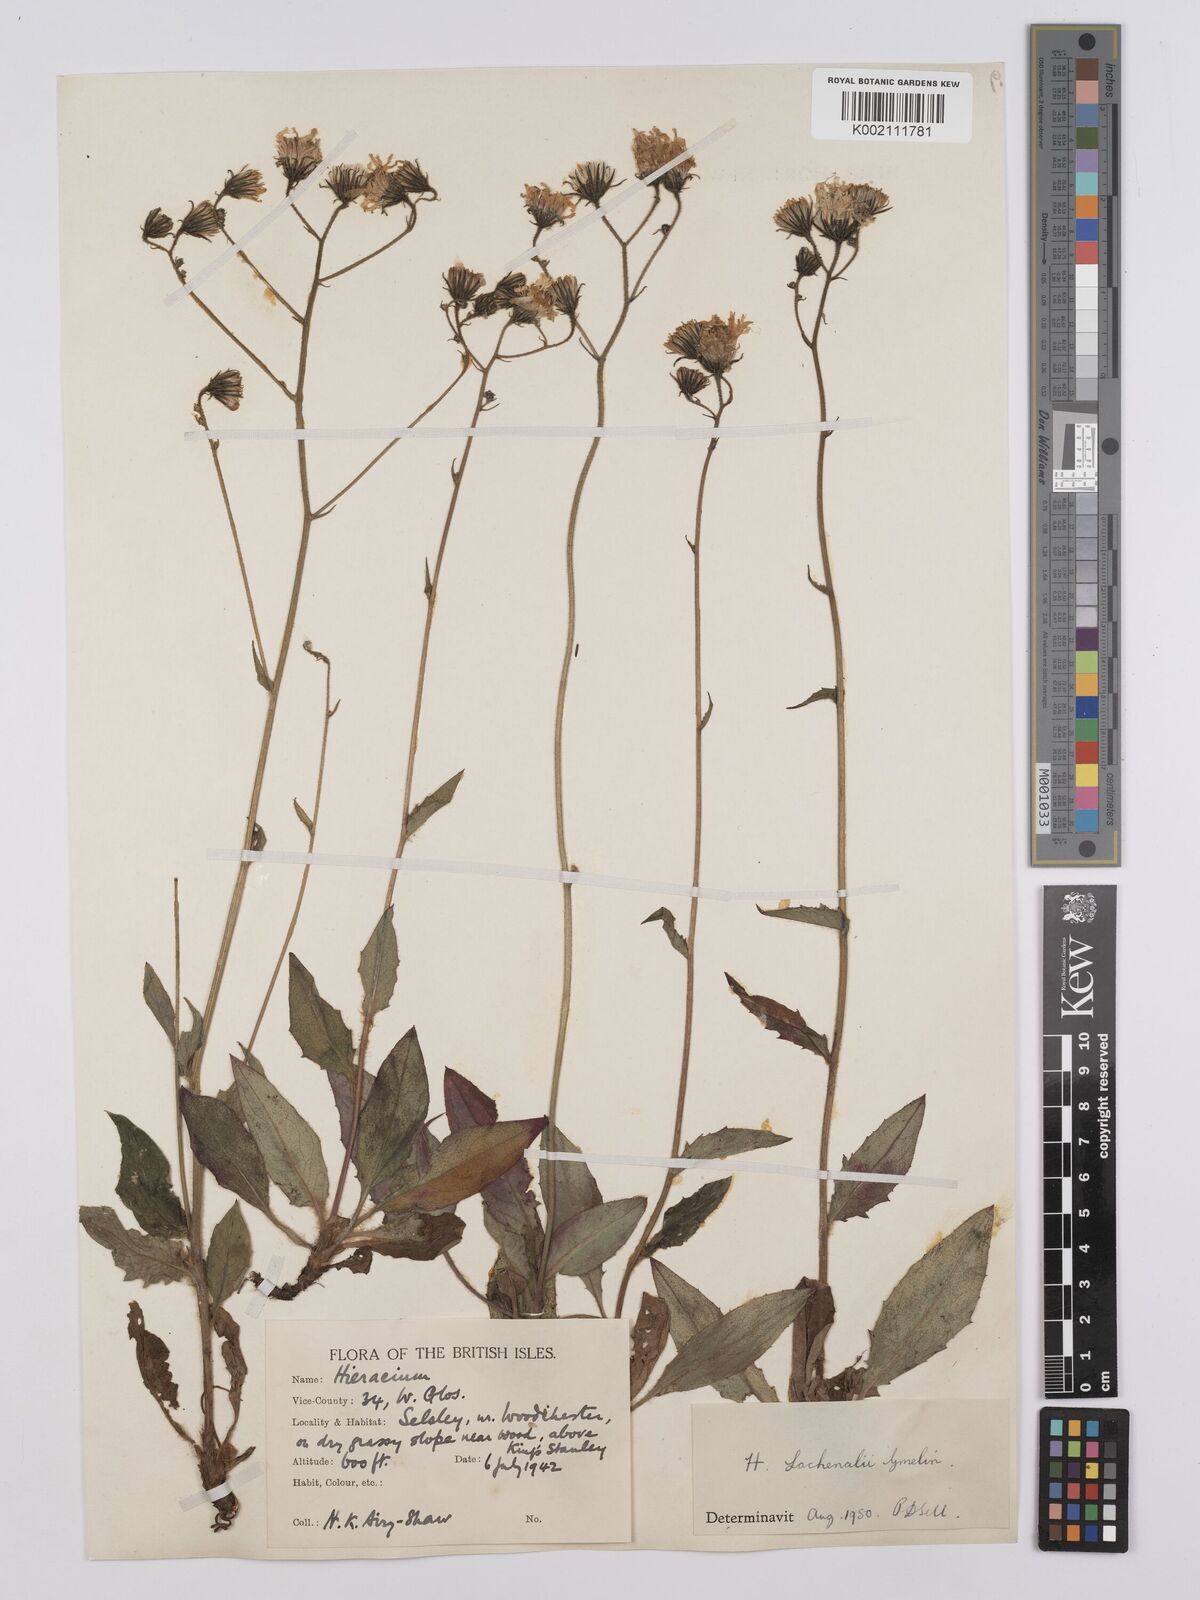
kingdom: Plantae
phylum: Tracheophyta
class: Magnoliopsida
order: Asterales
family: Asteraceae
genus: Hieracium
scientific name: Hieracium lachenalii
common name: Common hawkweed
